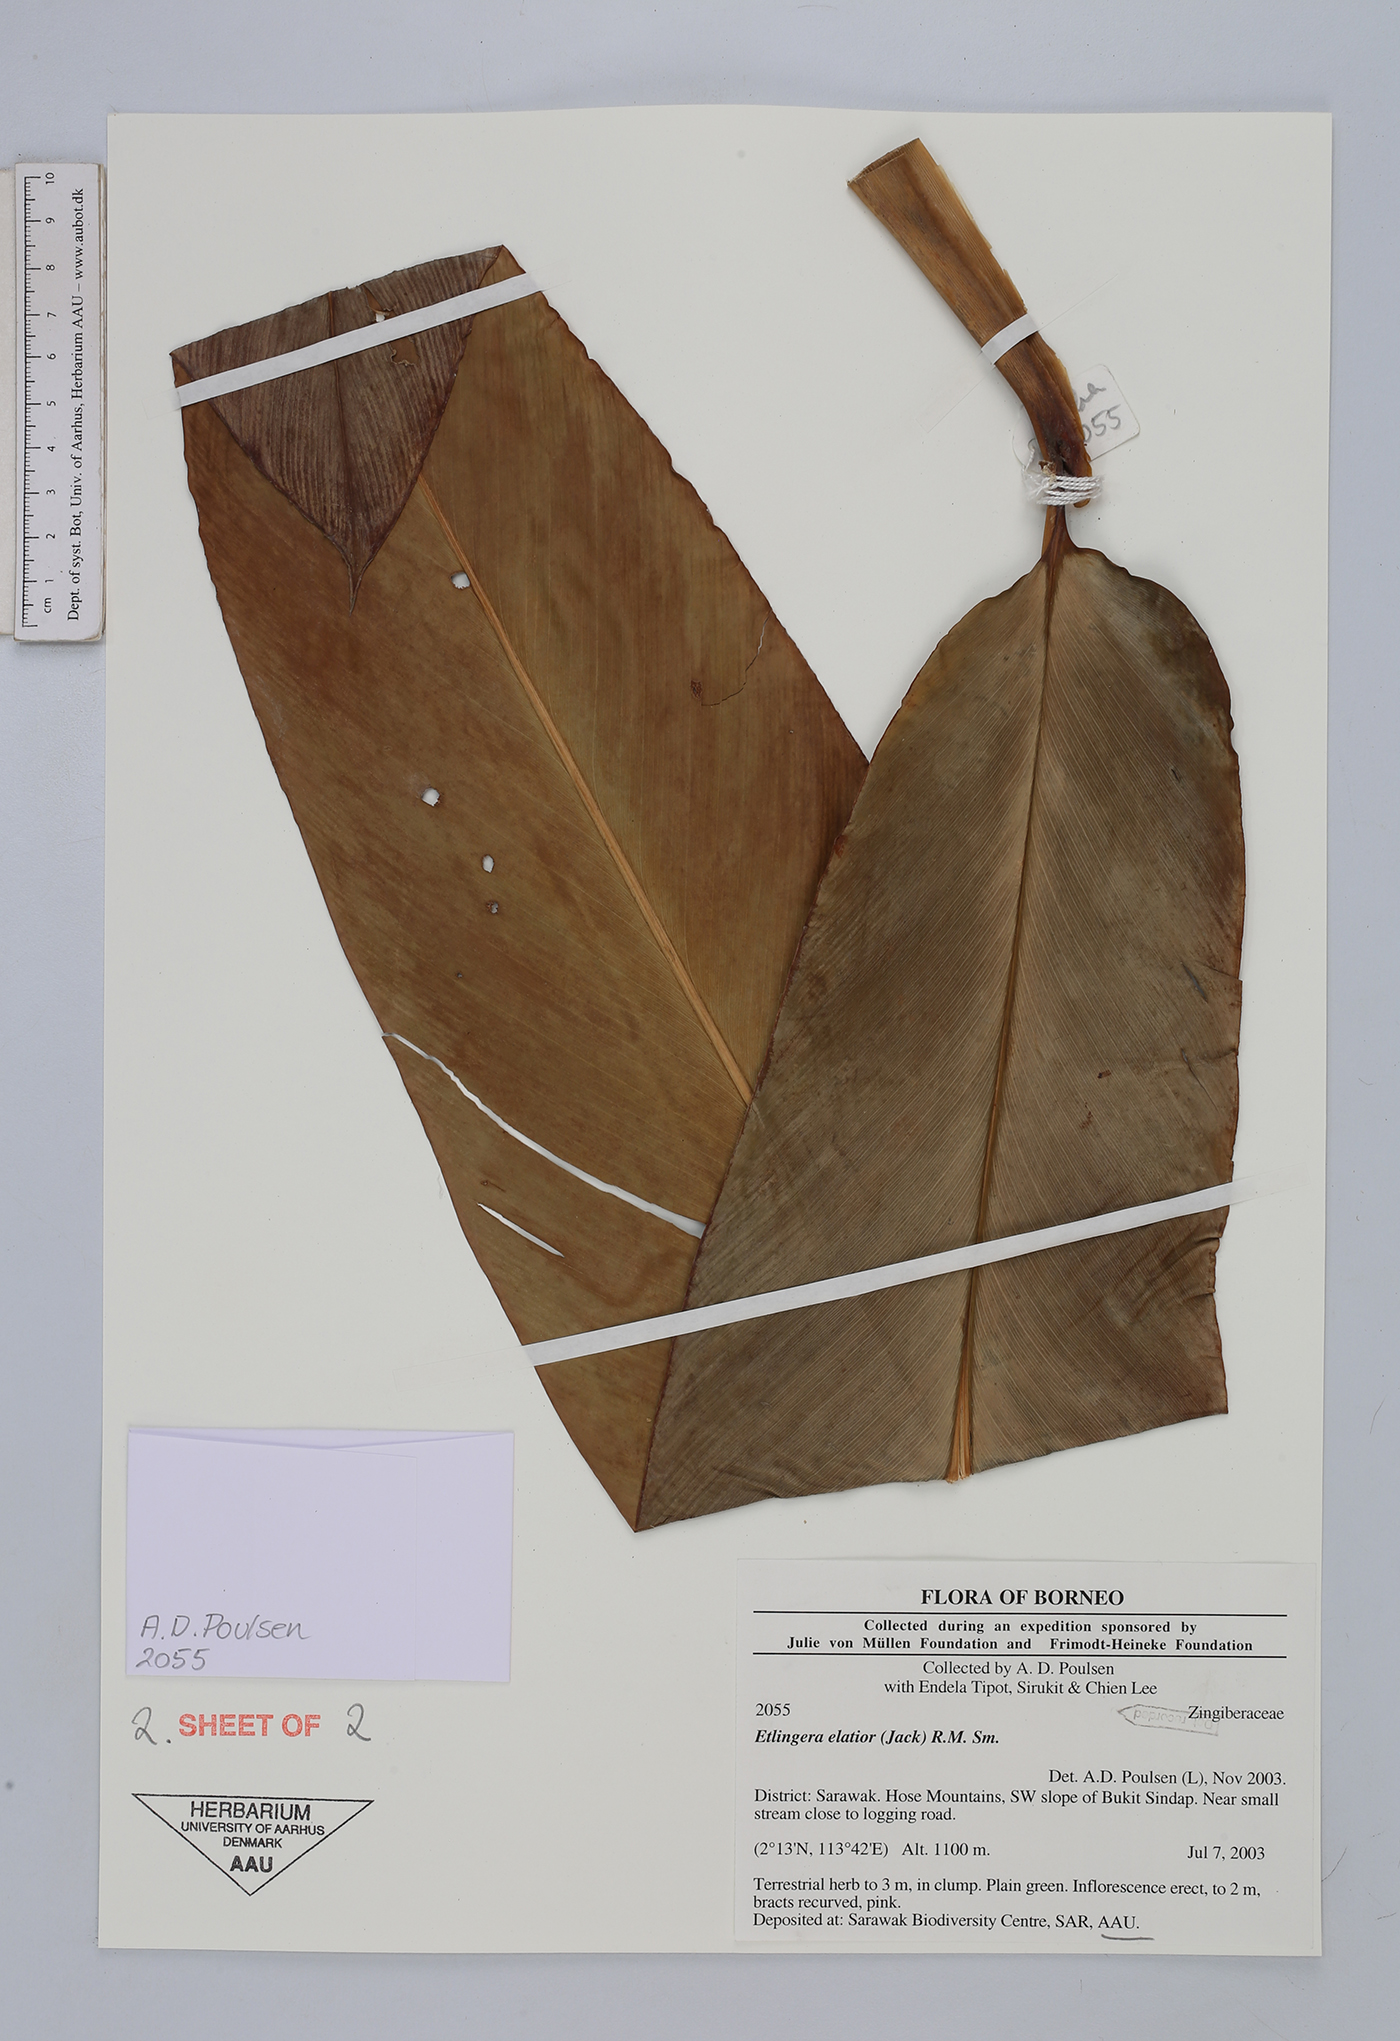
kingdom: Plantae
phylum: Tracheophyta
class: Liliopsida
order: Zingiberales
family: Zingiberaceae
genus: Etlingera
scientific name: Etlingera elatior
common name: Philippine waxflower
